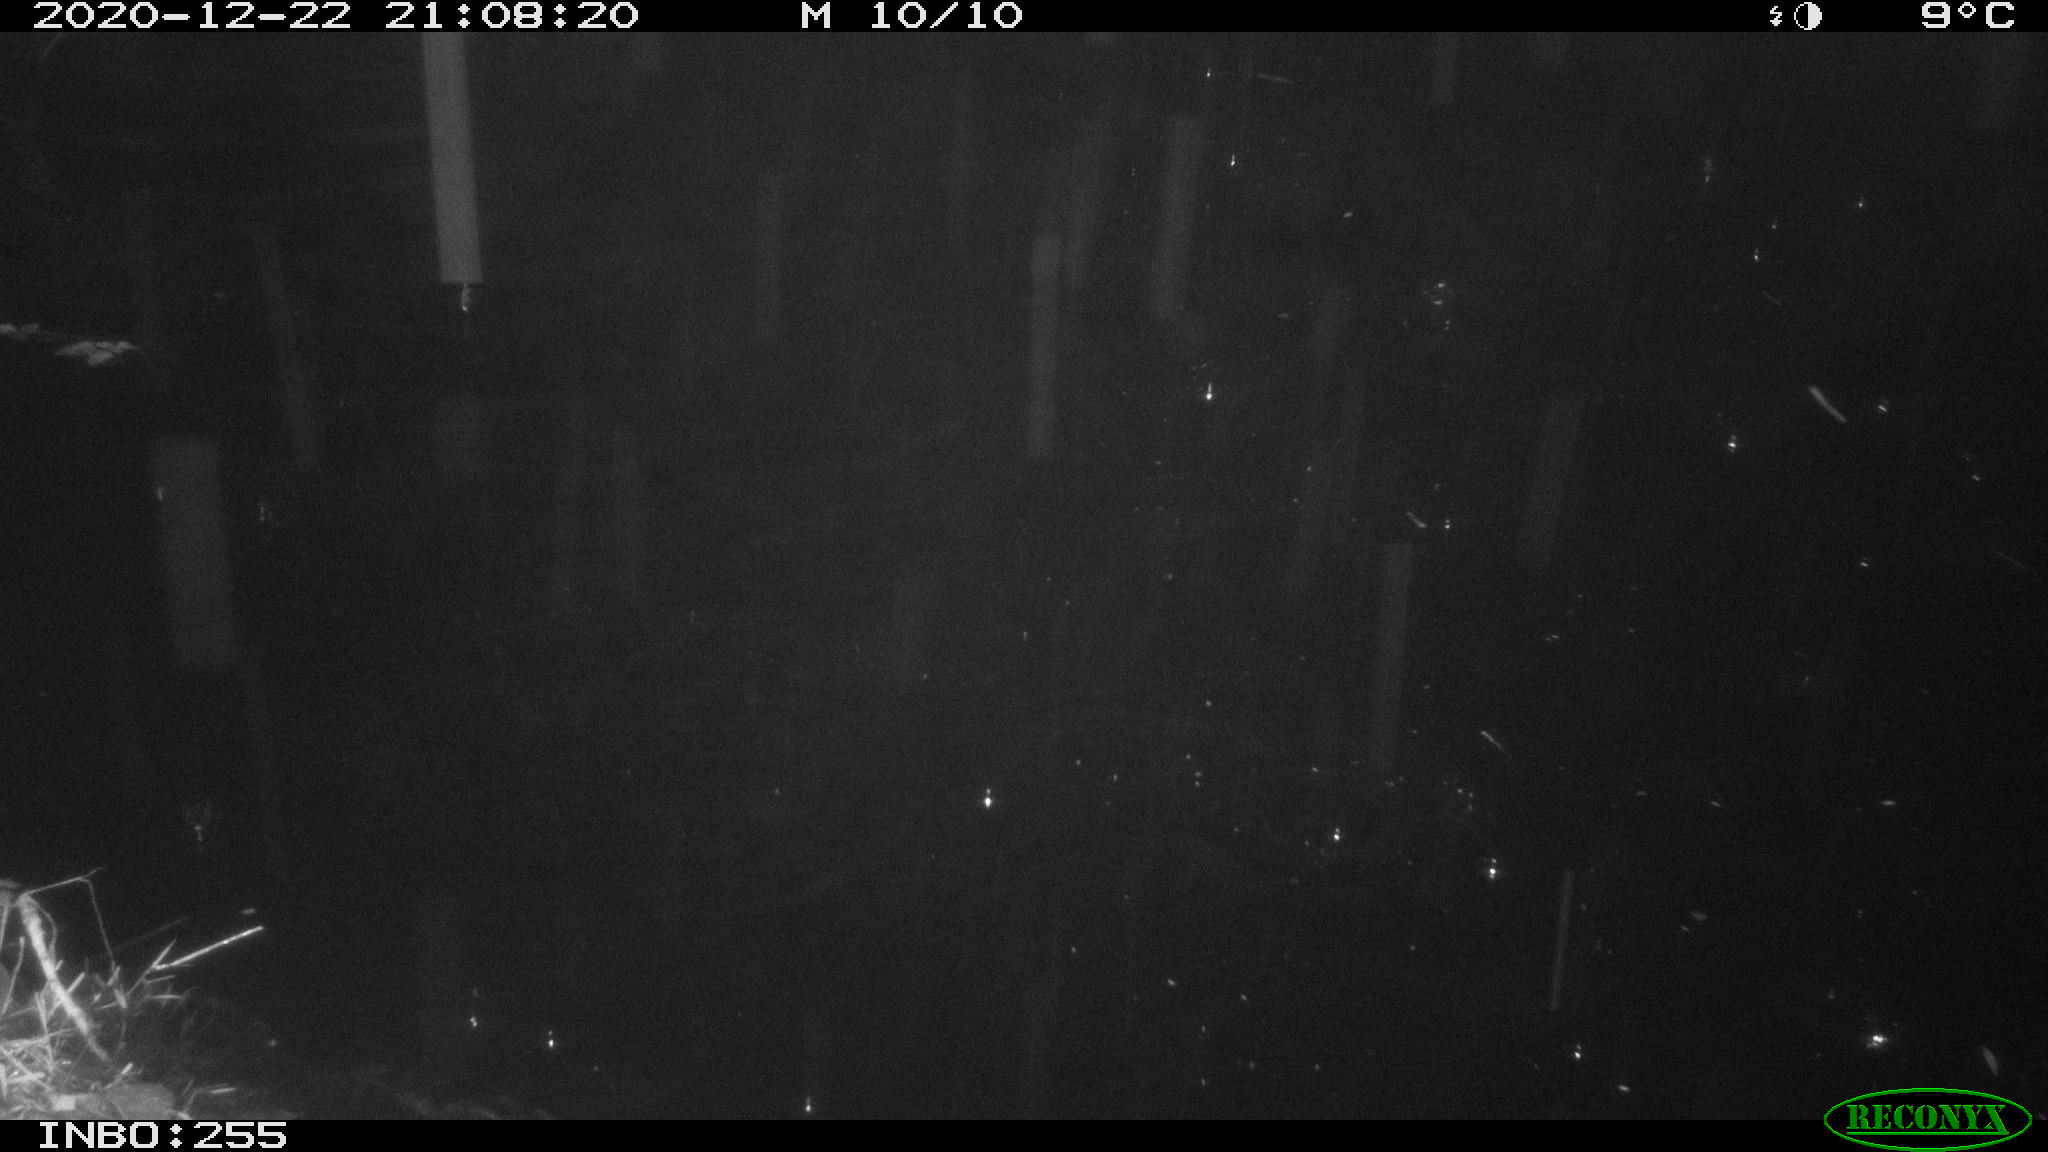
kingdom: Animalia
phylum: Chordata
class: Mammalia
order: Rodentia
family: Muridae
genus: Rattus
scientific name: Rattus norvegicus
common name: Brown rat
